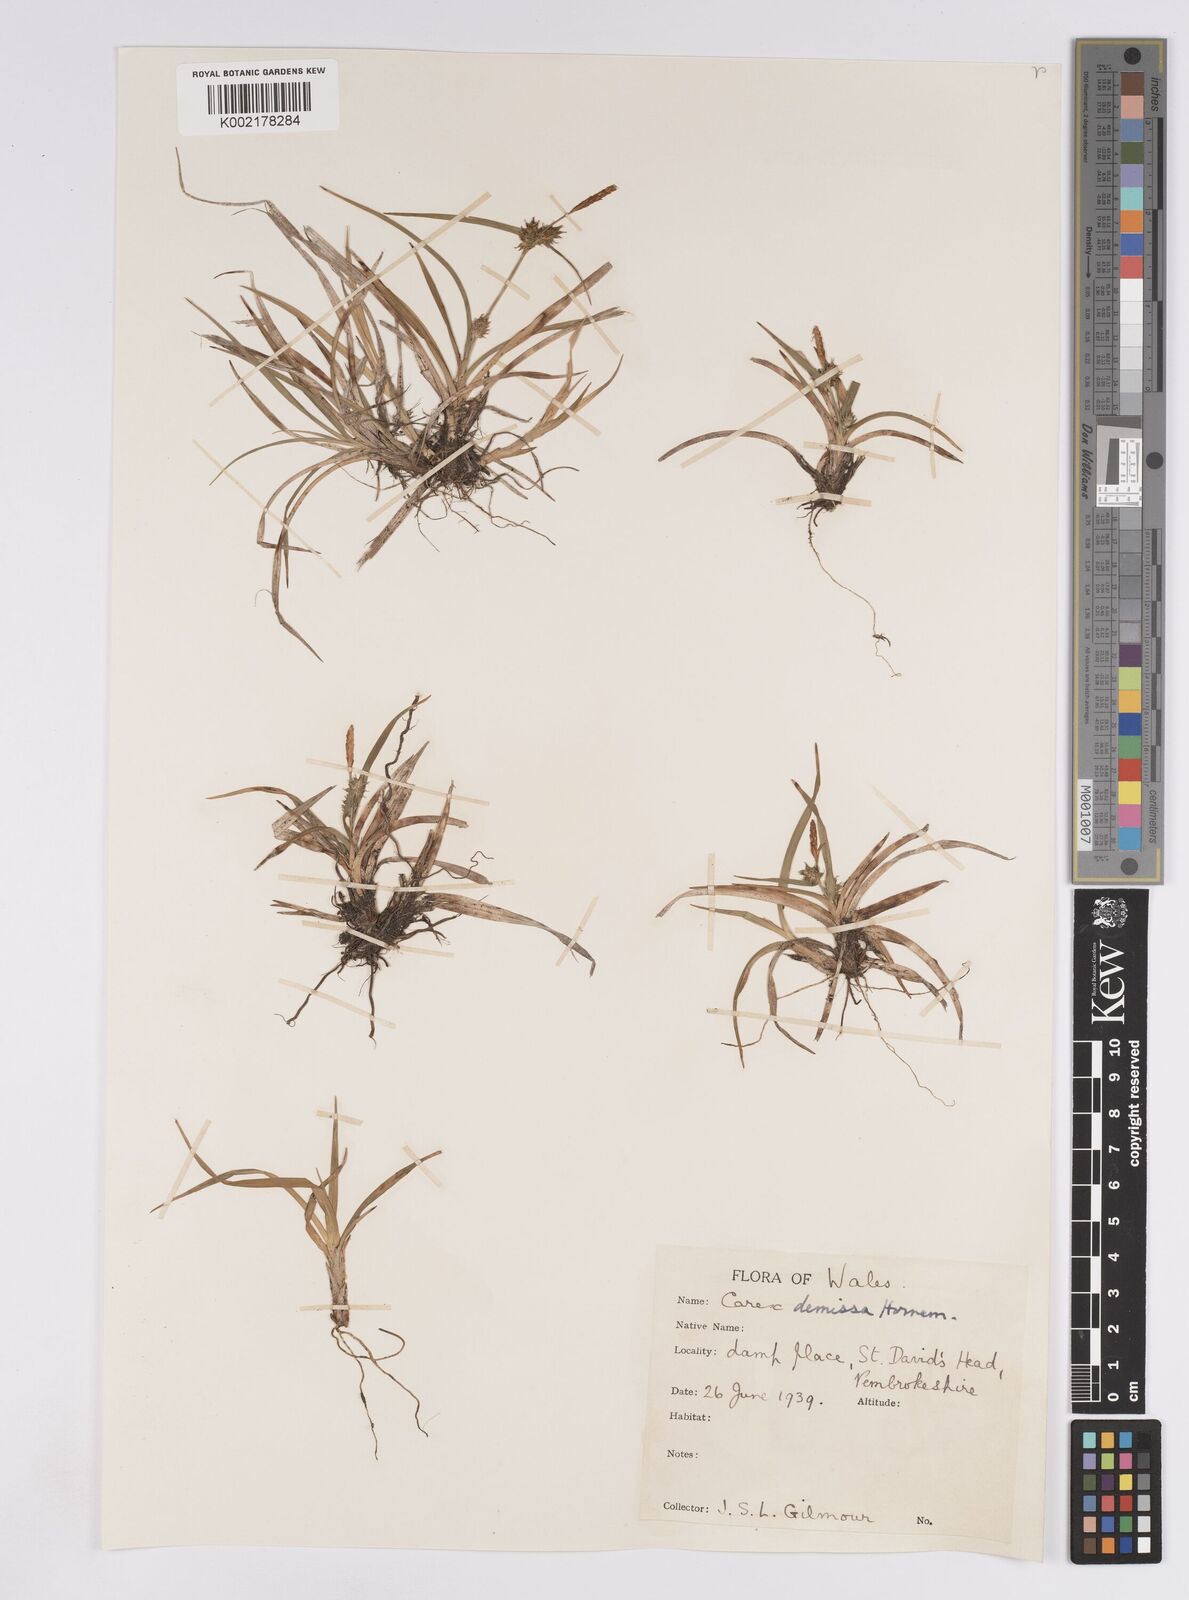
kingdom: Plantae
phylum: Tracheophyta
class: Liliopsida
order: Poales
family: Cyperaceae
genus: Carex
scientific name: Carex demissa
